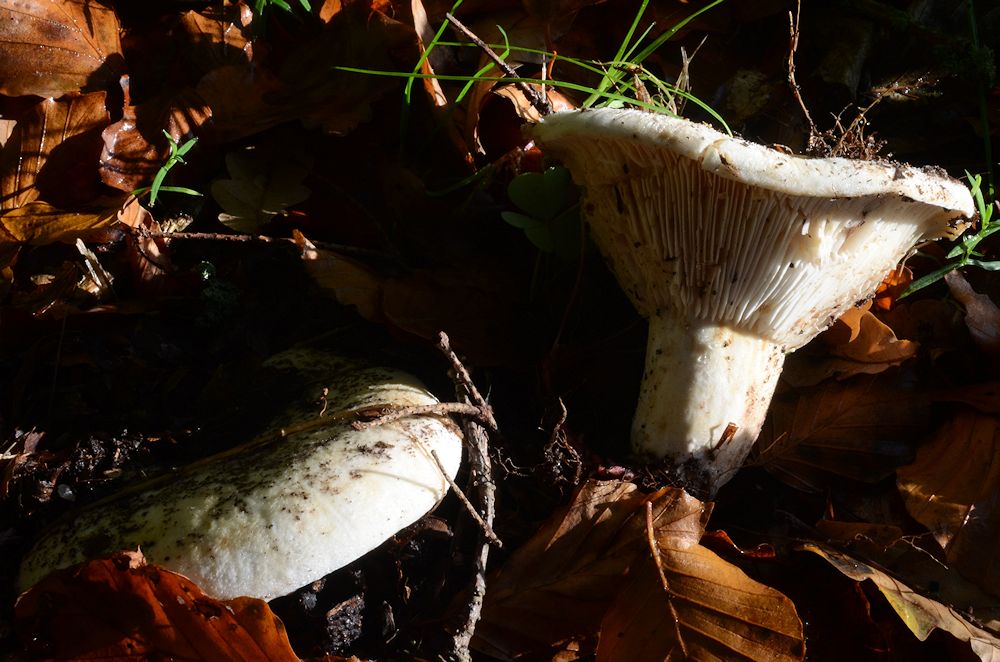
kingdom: Fungi
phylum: Basidiomycota
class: Agaricomycetes
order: Russulales
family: Russulaceae
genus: Russula
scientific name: Russula delica
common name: almindelig tragt-skørhat
